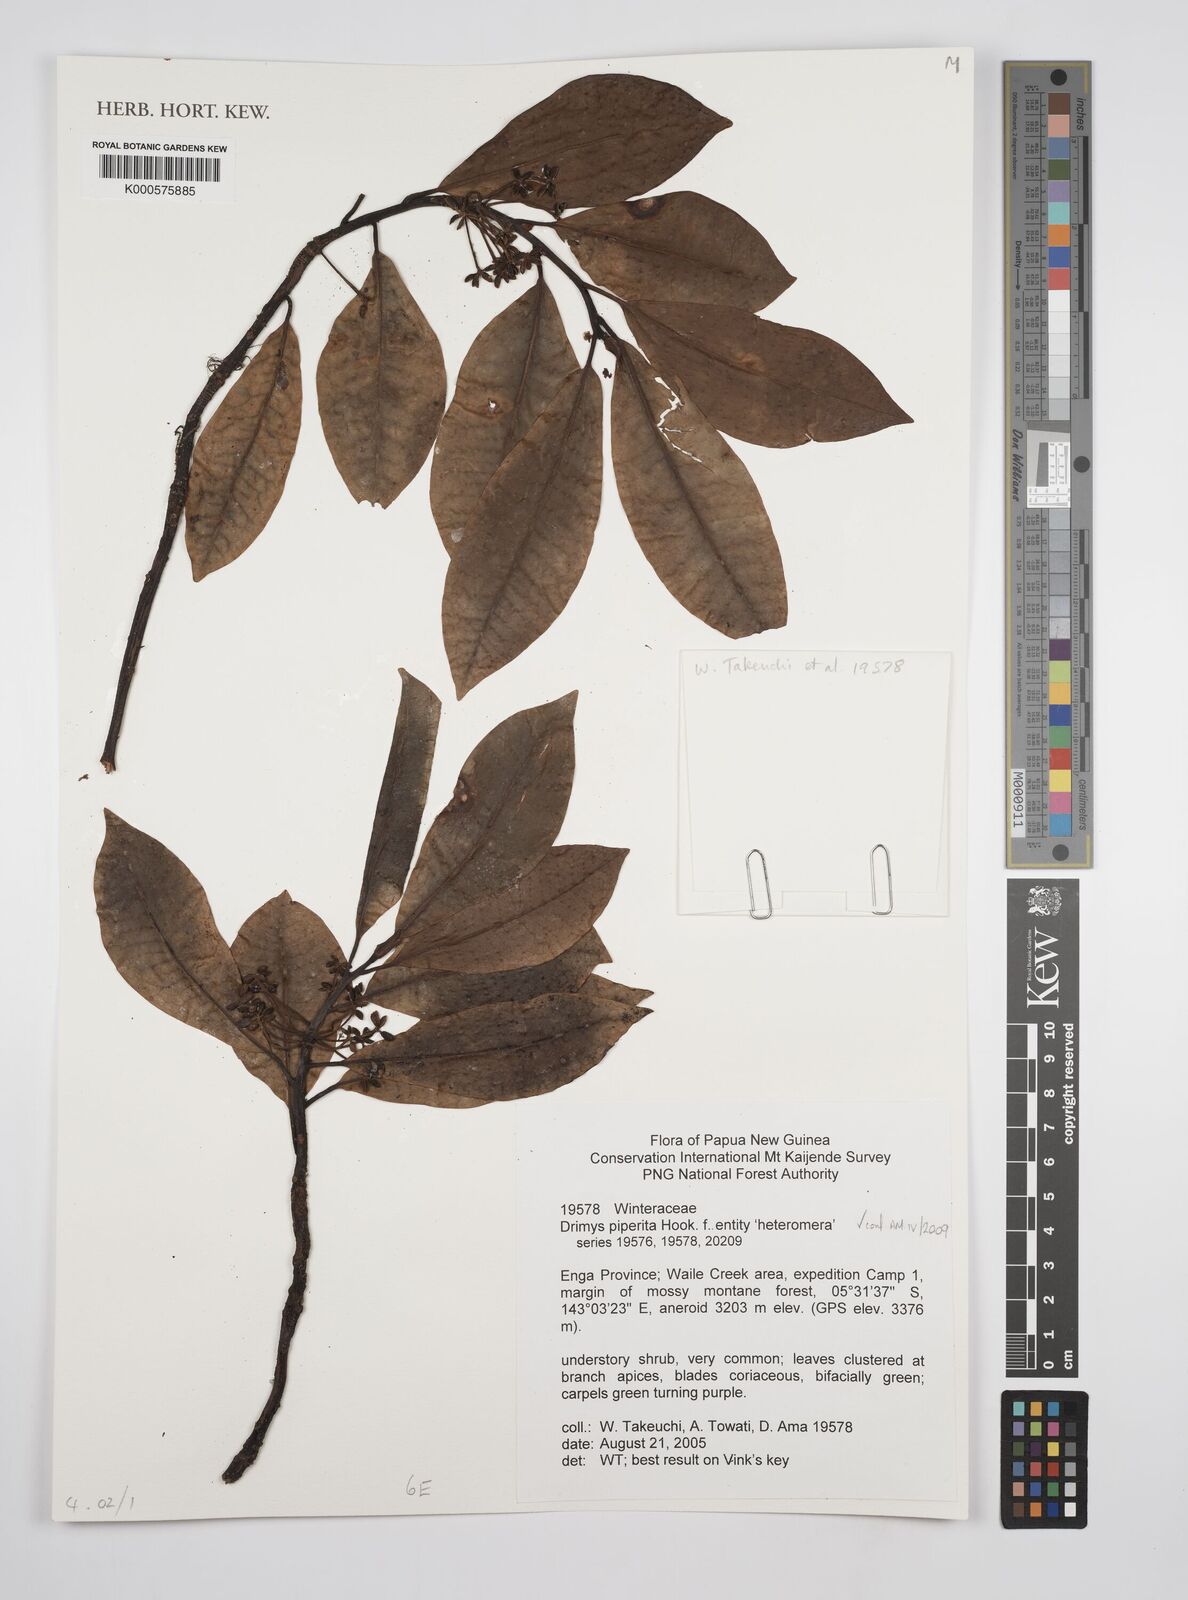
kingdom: Plantae
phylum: Tracheophyta
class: Magnoliopsida
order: Canellales
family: Winteraceae
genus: Drimys
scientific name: Drimys piperita
